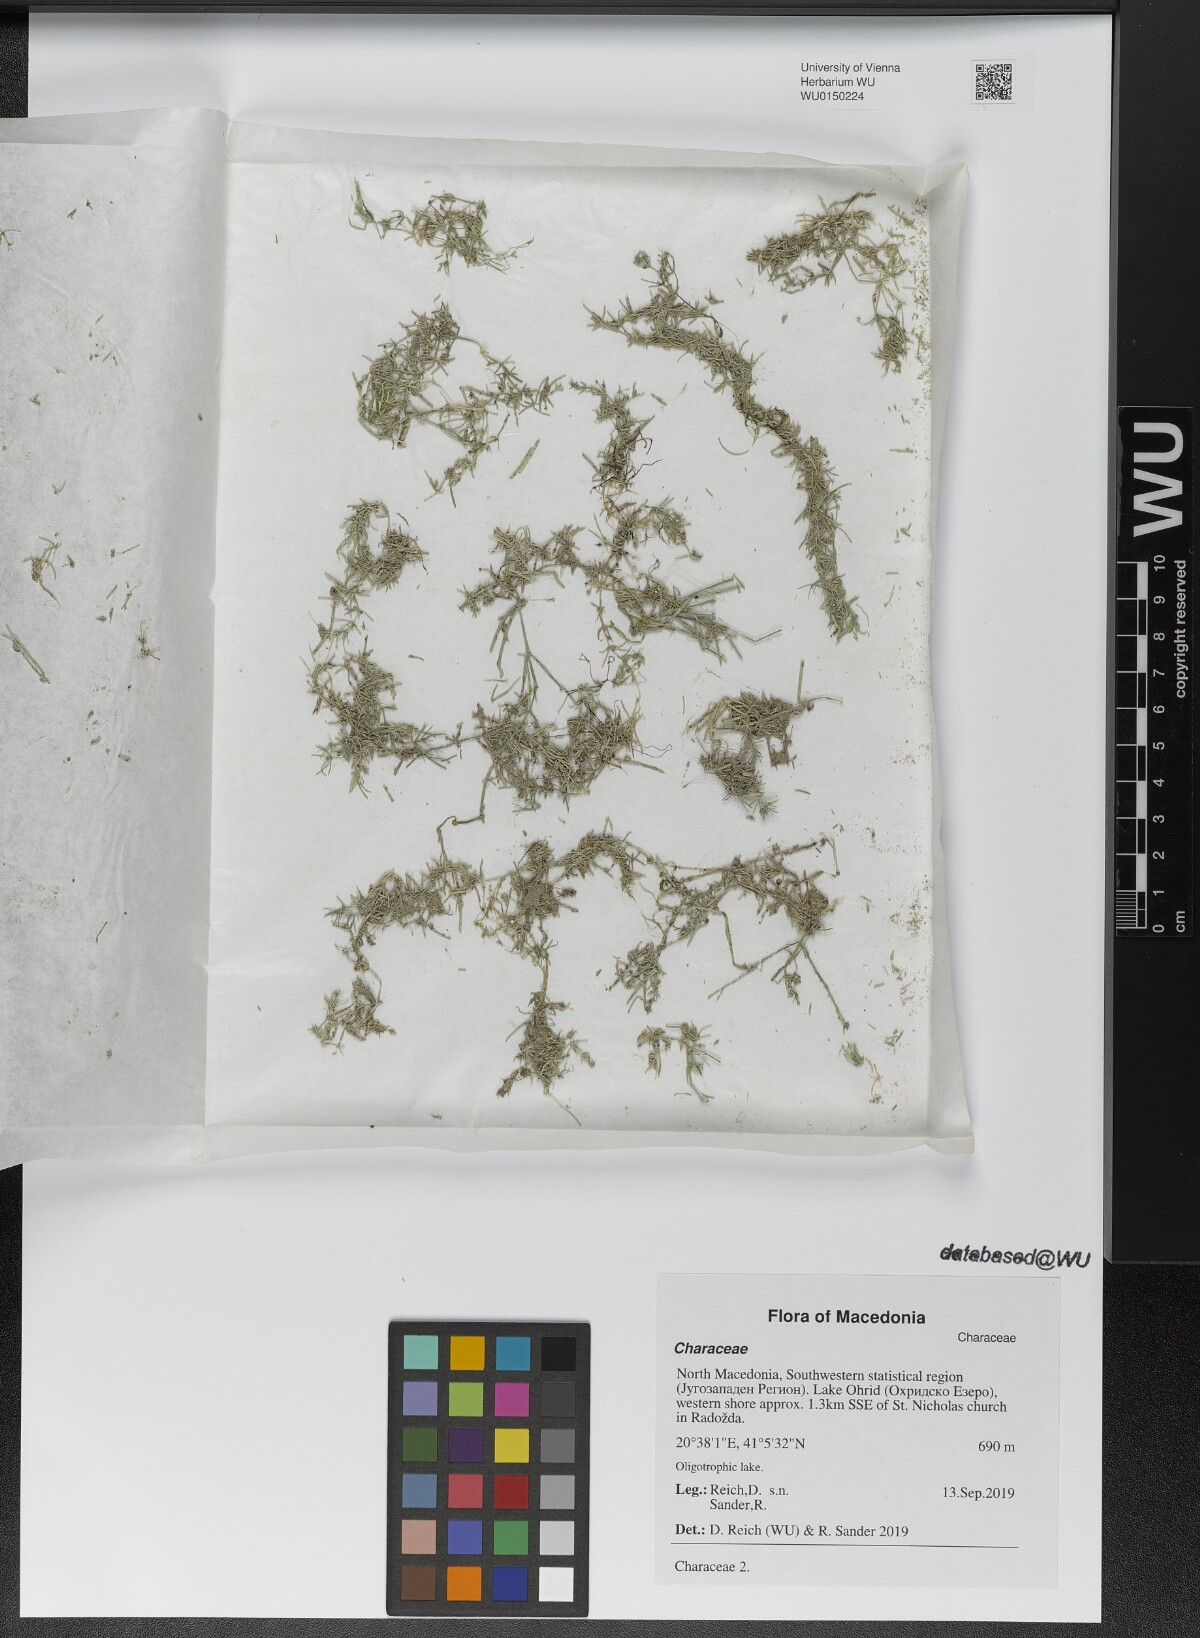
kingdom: Plantae
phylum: Charophyta
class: Charophyceae
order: Charales
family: Characeae
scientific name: Characeae
